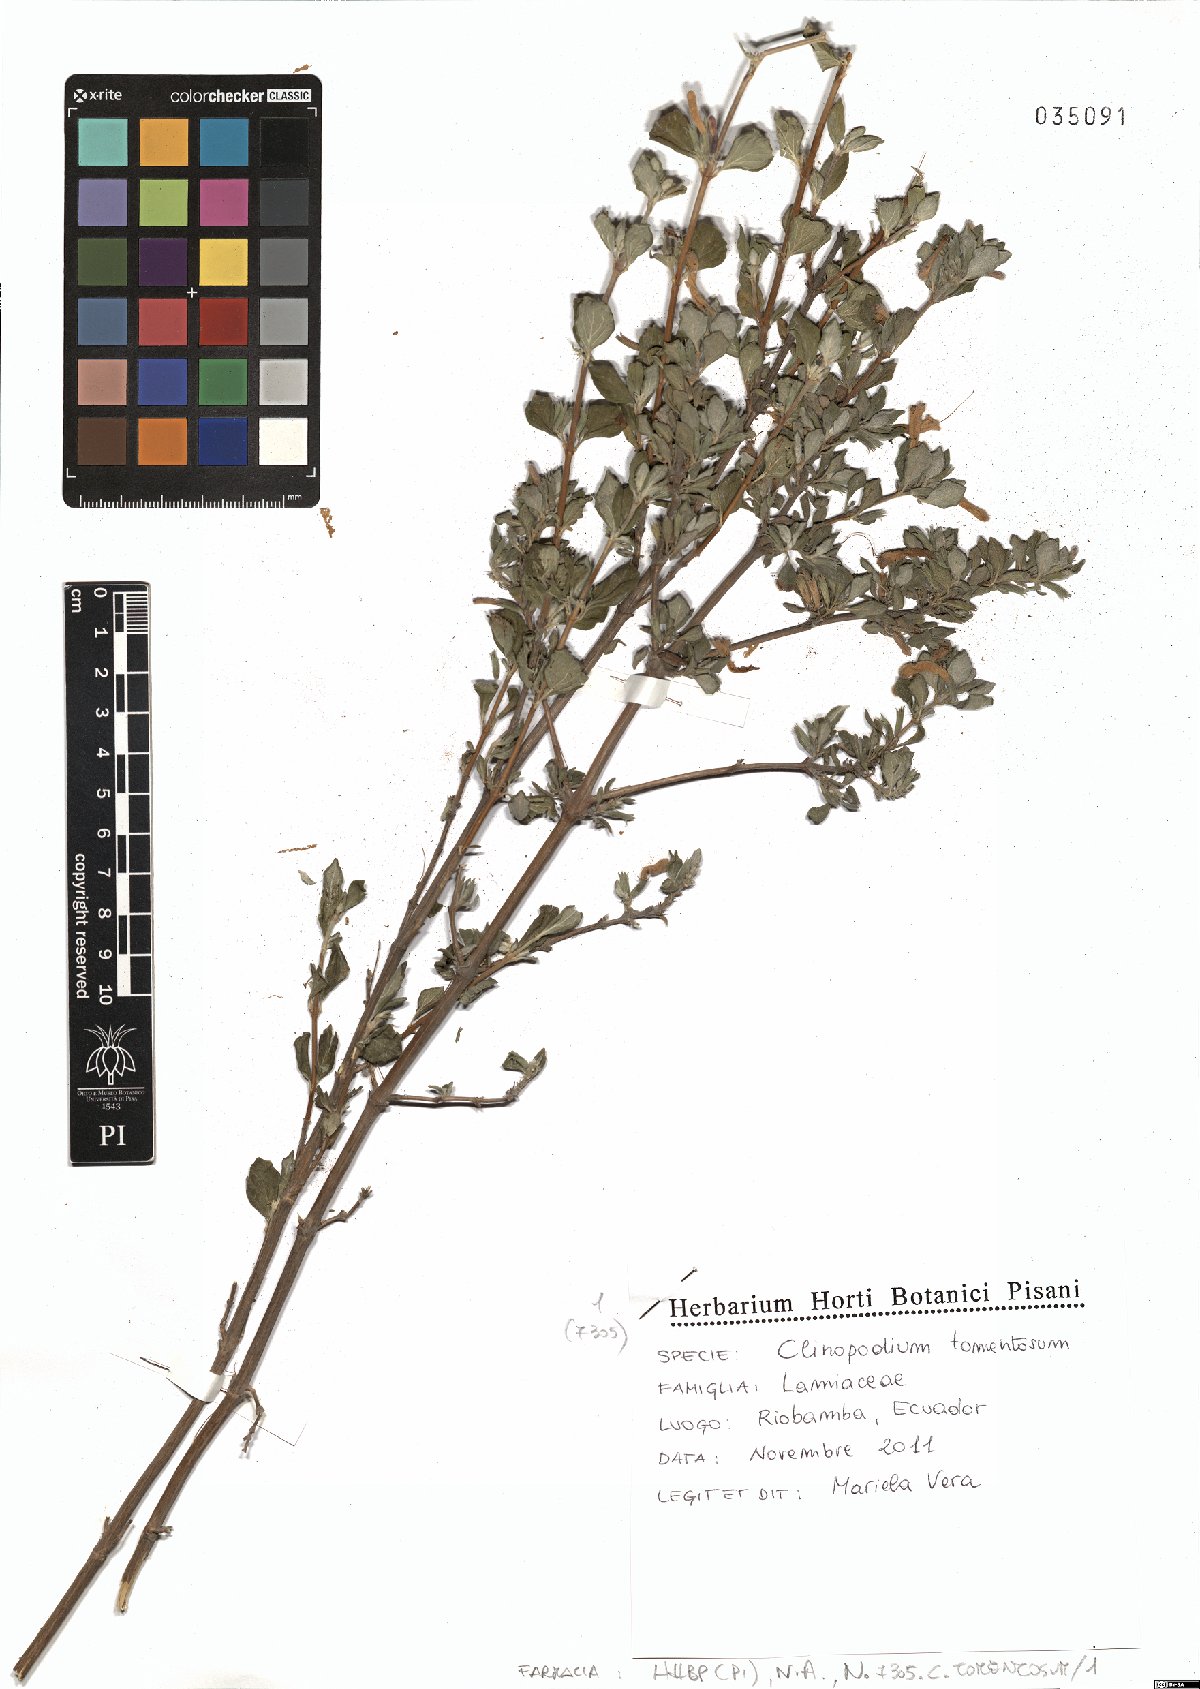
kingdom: Plantae
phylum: Tracheophyta
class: Magnoliopsida
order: Lamiales
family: Lamiaceae
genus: Clinopodium
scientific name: Clinopodium tomentosum
